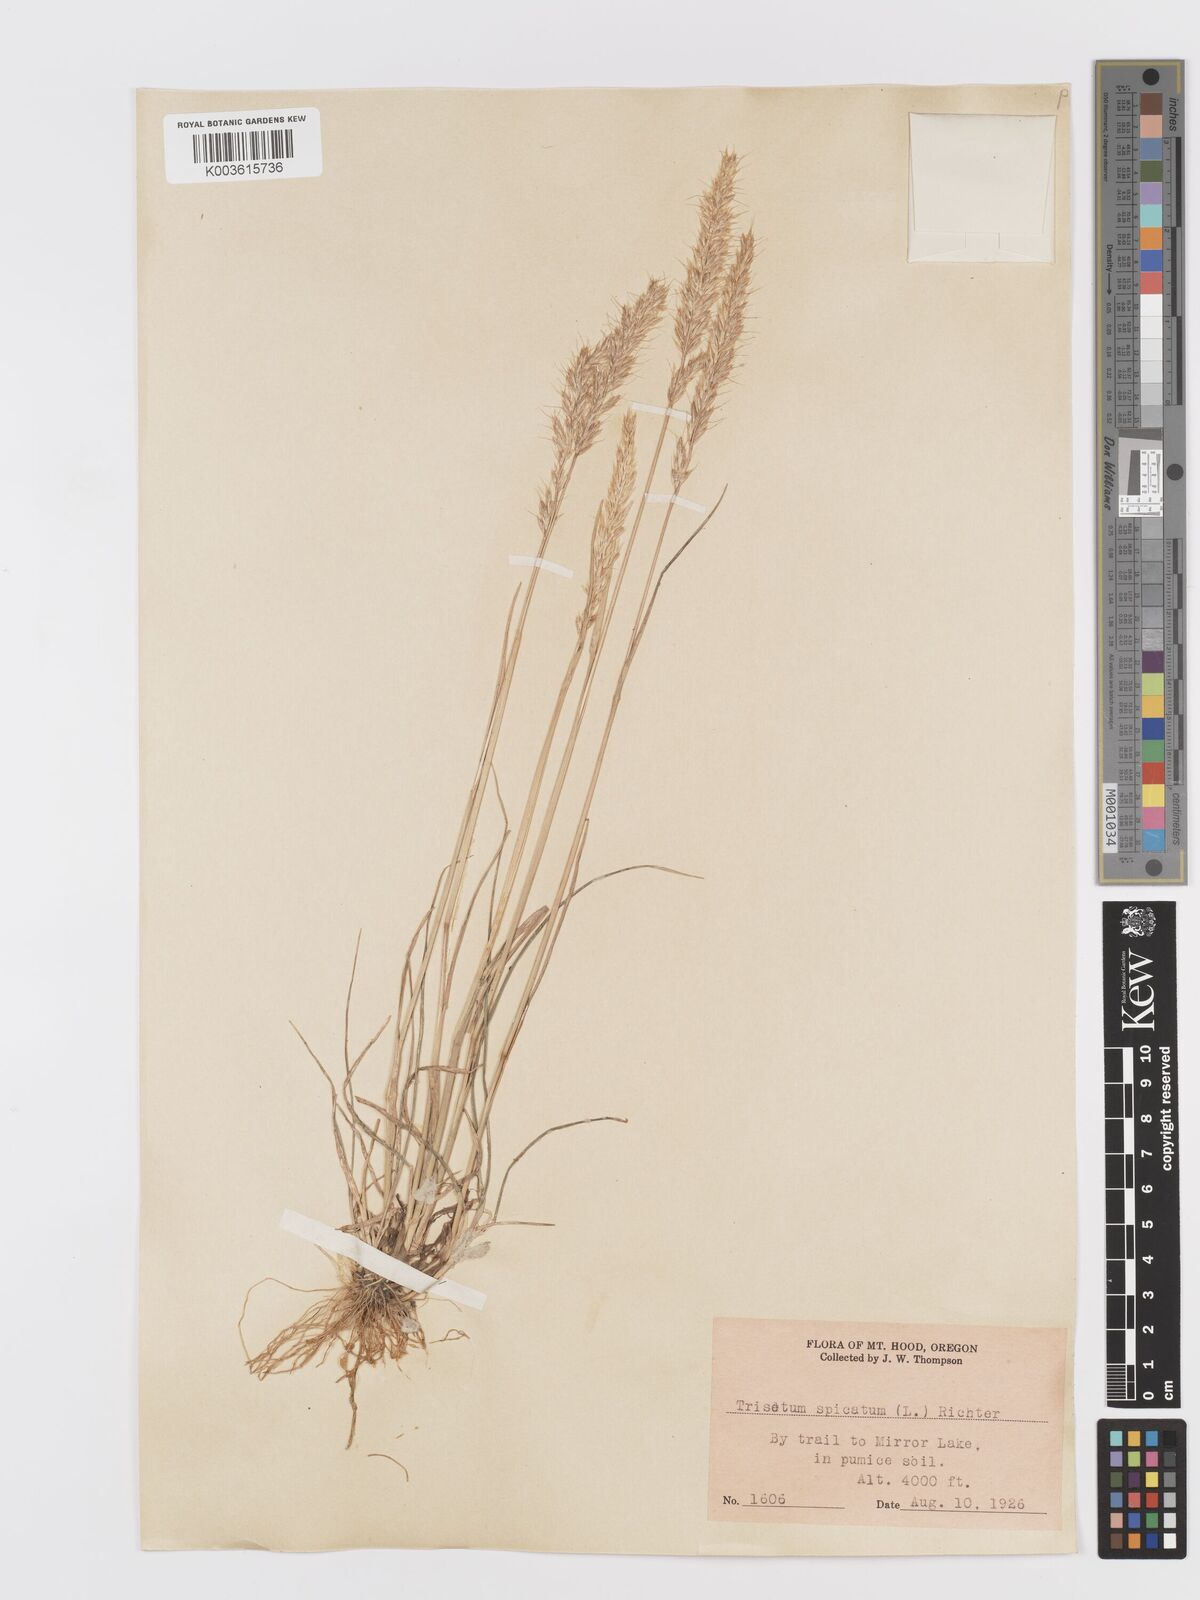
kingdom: Plantae
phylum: Tracheophyta
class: Liliopsida
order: Poales
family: Poaceae
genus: Koeleria
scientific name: Koeleria spicata
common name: Mountain trisetum
